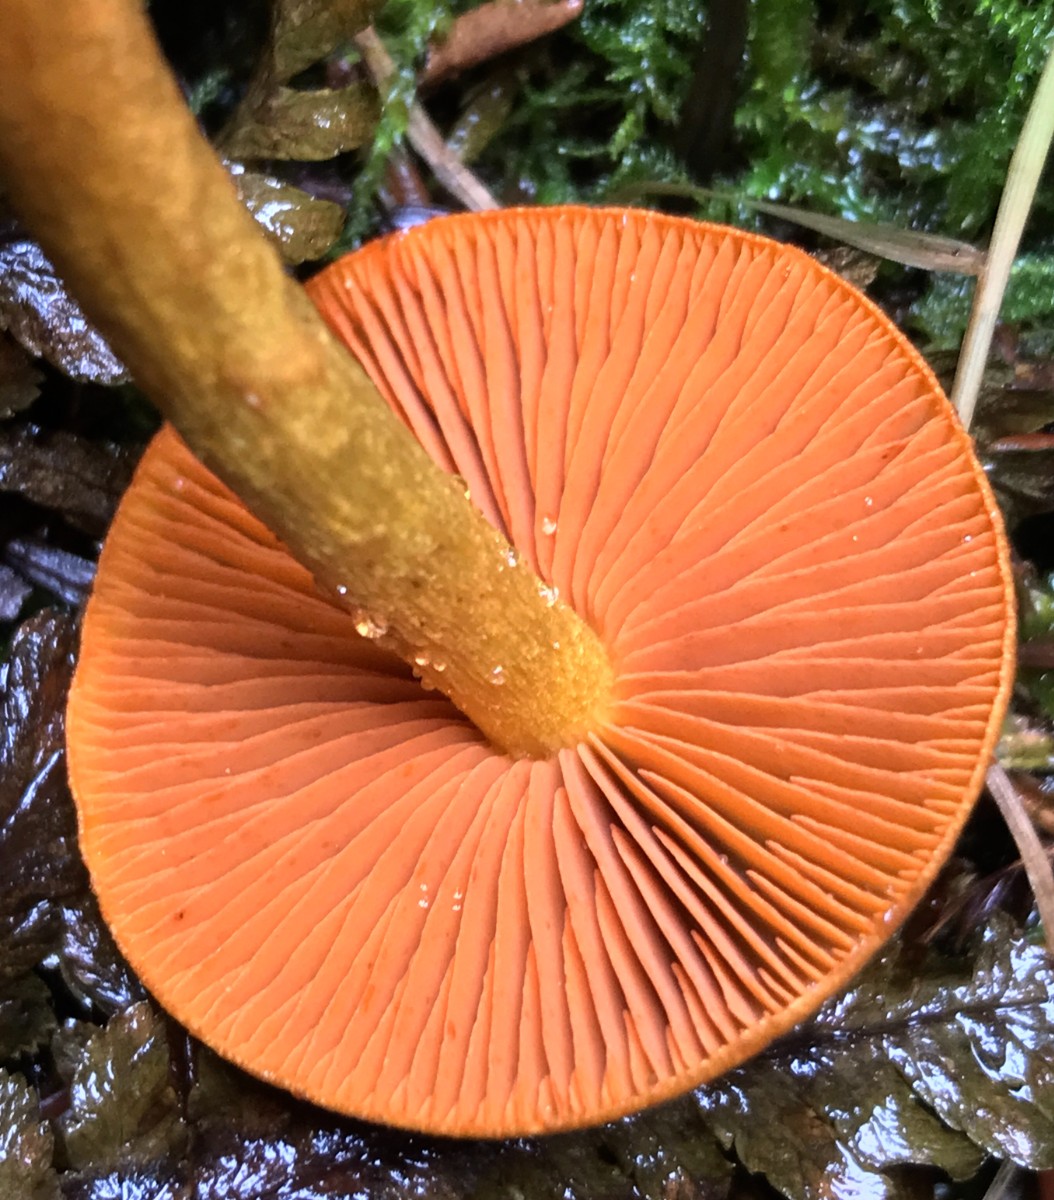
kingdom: Fungi
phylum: Basidiomycota
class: Agaricomycetes
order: Agaricales
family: Cortinariaceae
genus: Cortinarius
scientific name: Cortinarius malicorius
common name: grønkødet slørhat
